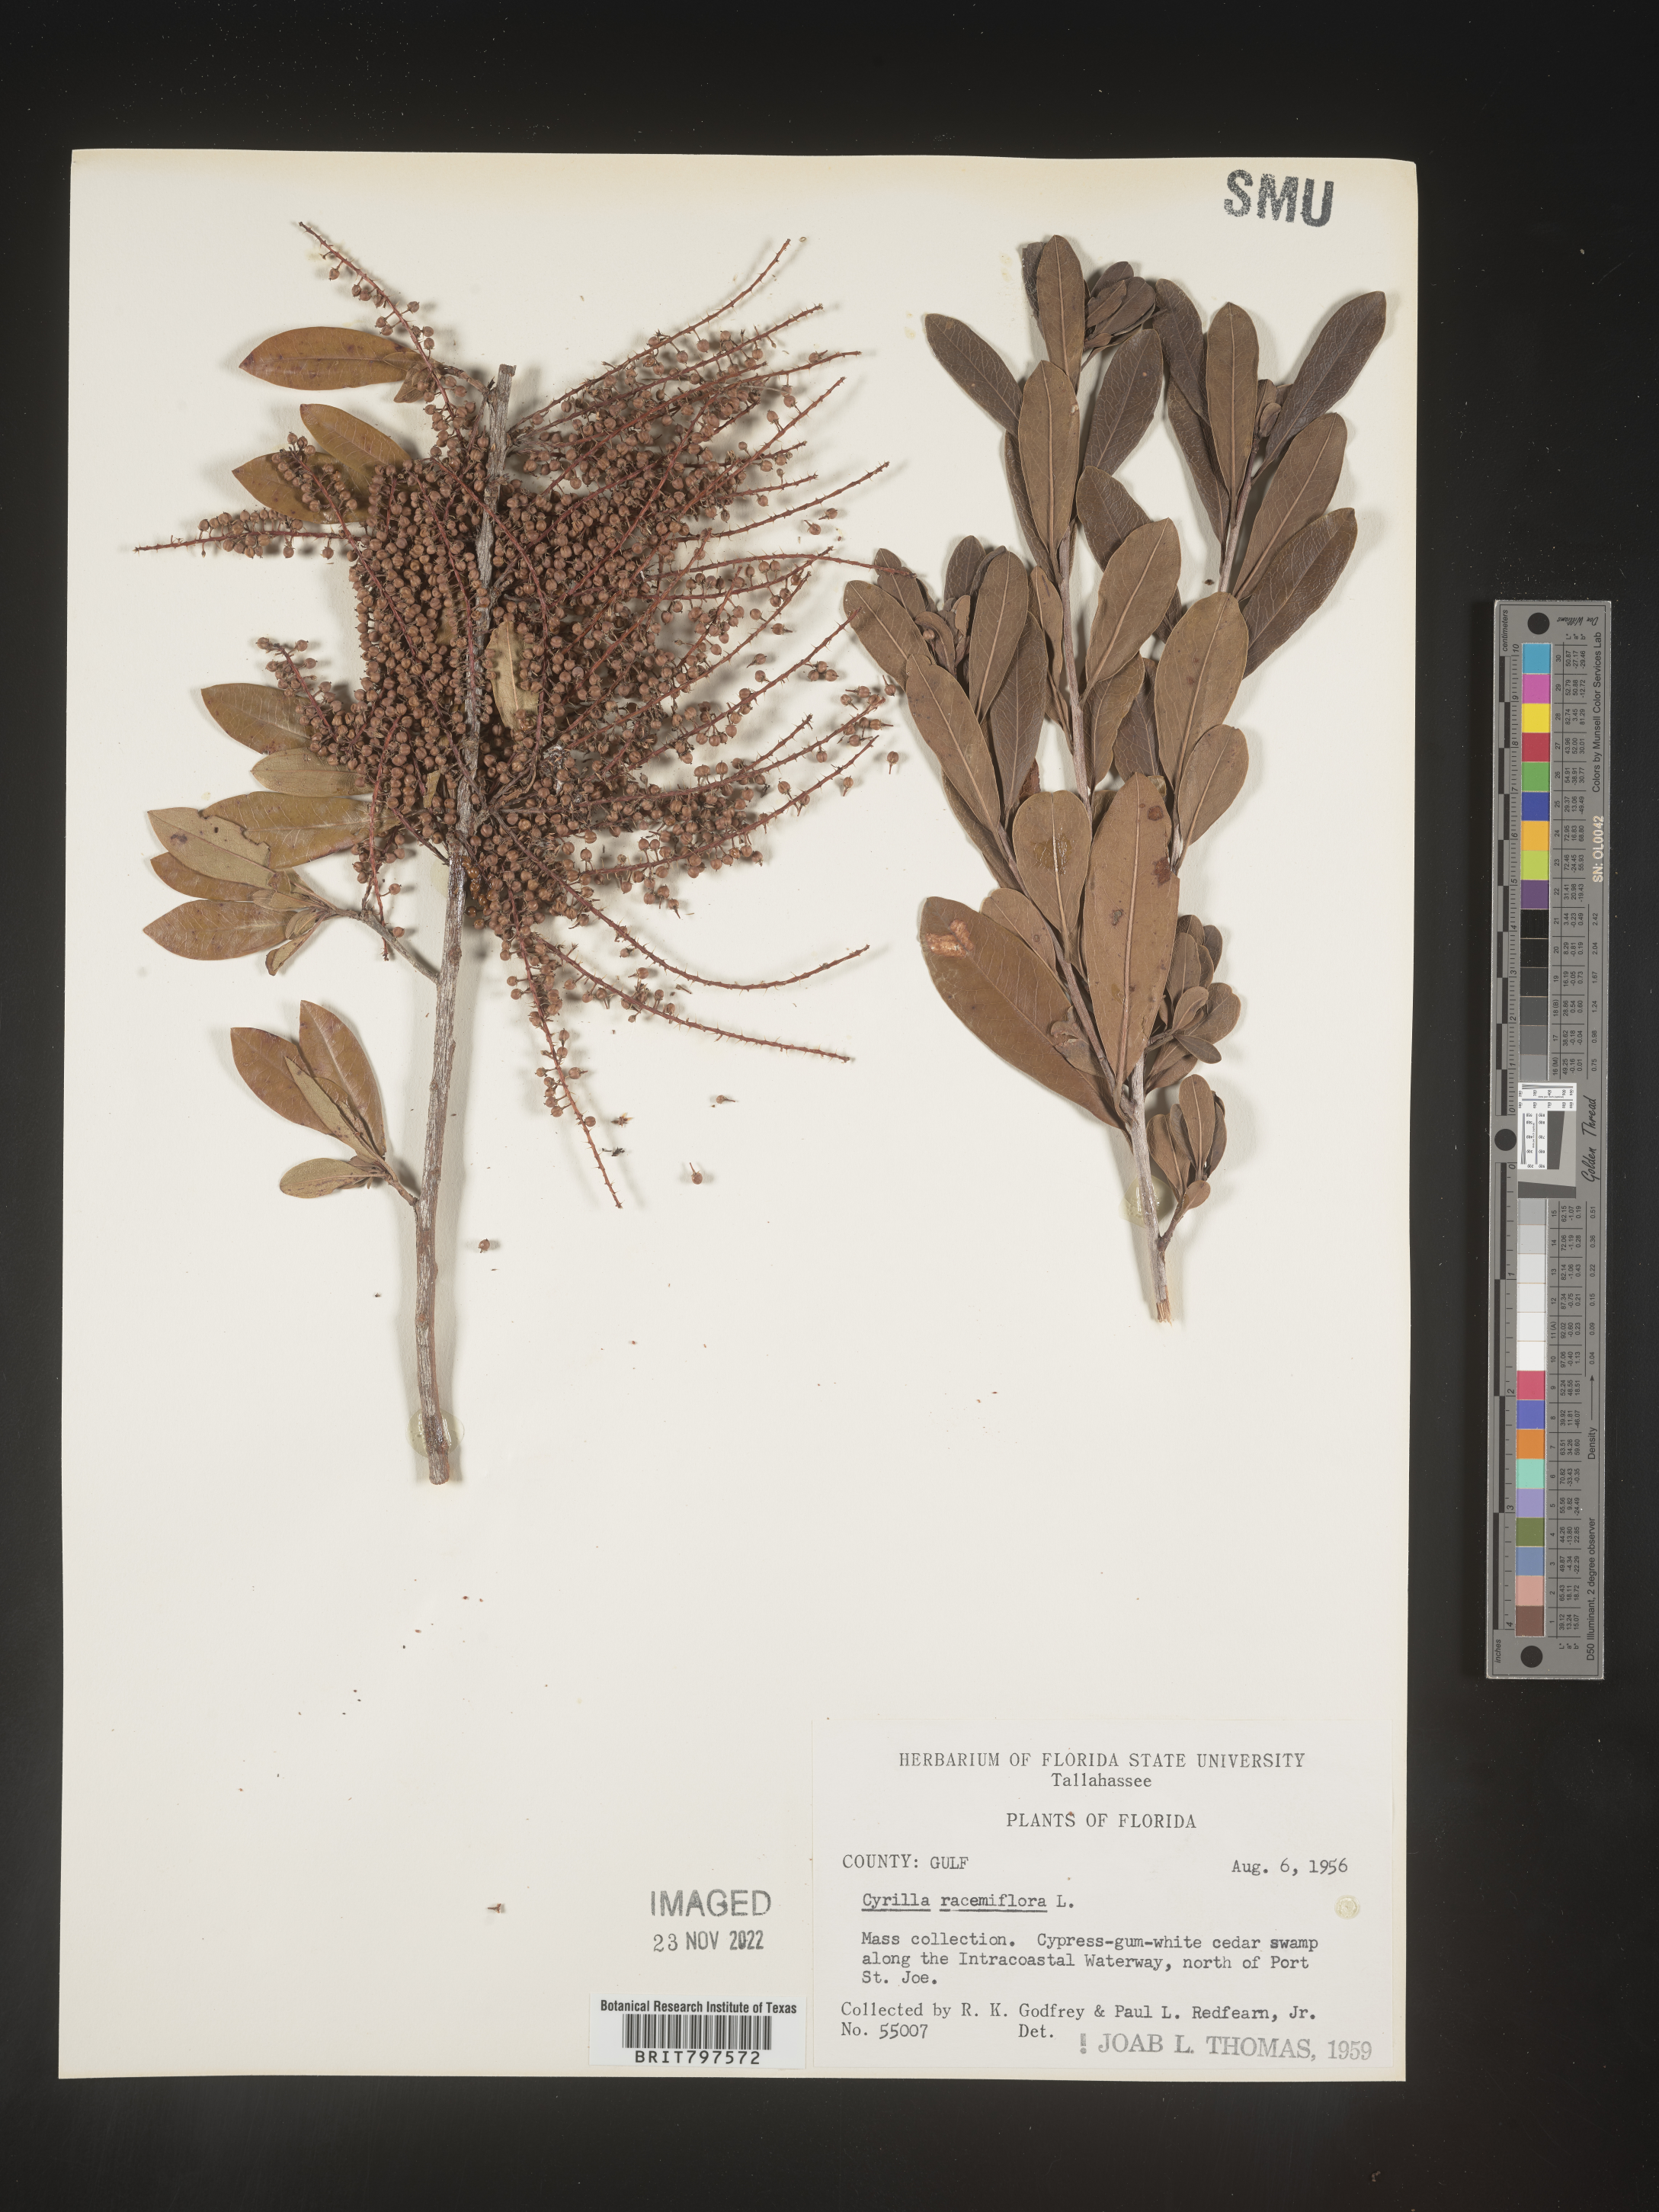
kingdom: Plantae
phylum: Tracheophyta
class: Magnoliopsida
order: Ericales
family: Cyrillaceae
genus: Cyrilla
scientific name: Cyrilla racemiflora
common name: Black titi
